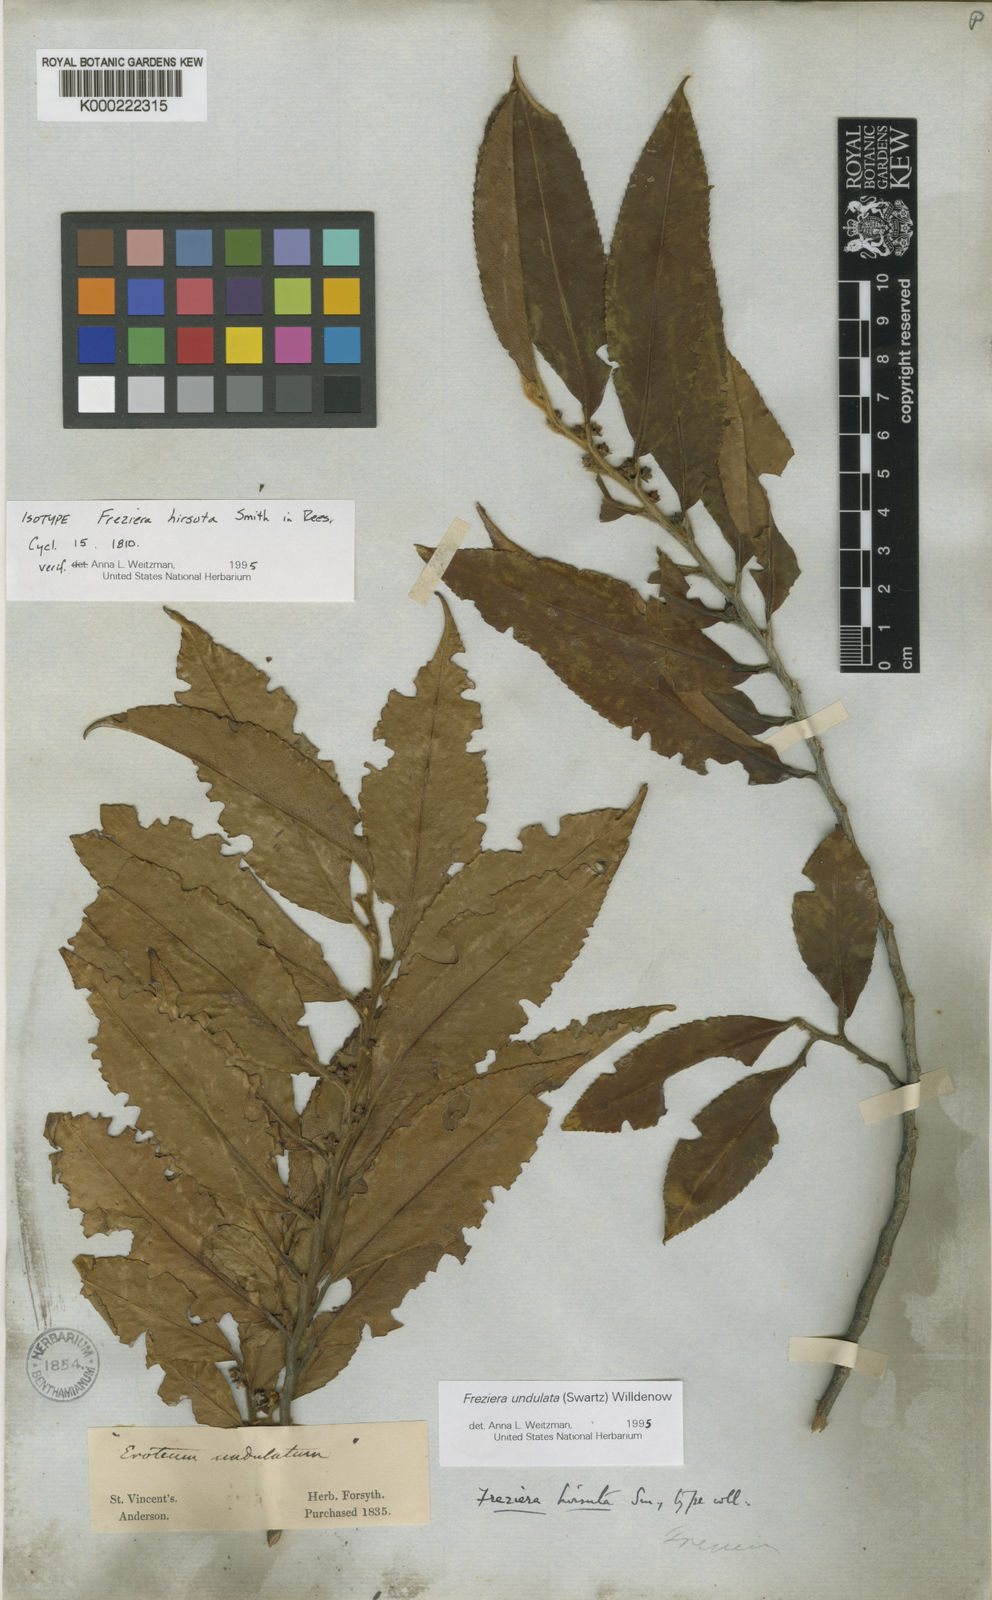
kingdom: Plantae
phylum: Tracheophyta
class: Magnoliopsida
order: Ericales
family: Pentaphylacaceae
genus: Freziera
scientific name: Freziera undulata
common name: Mountain mahogany
